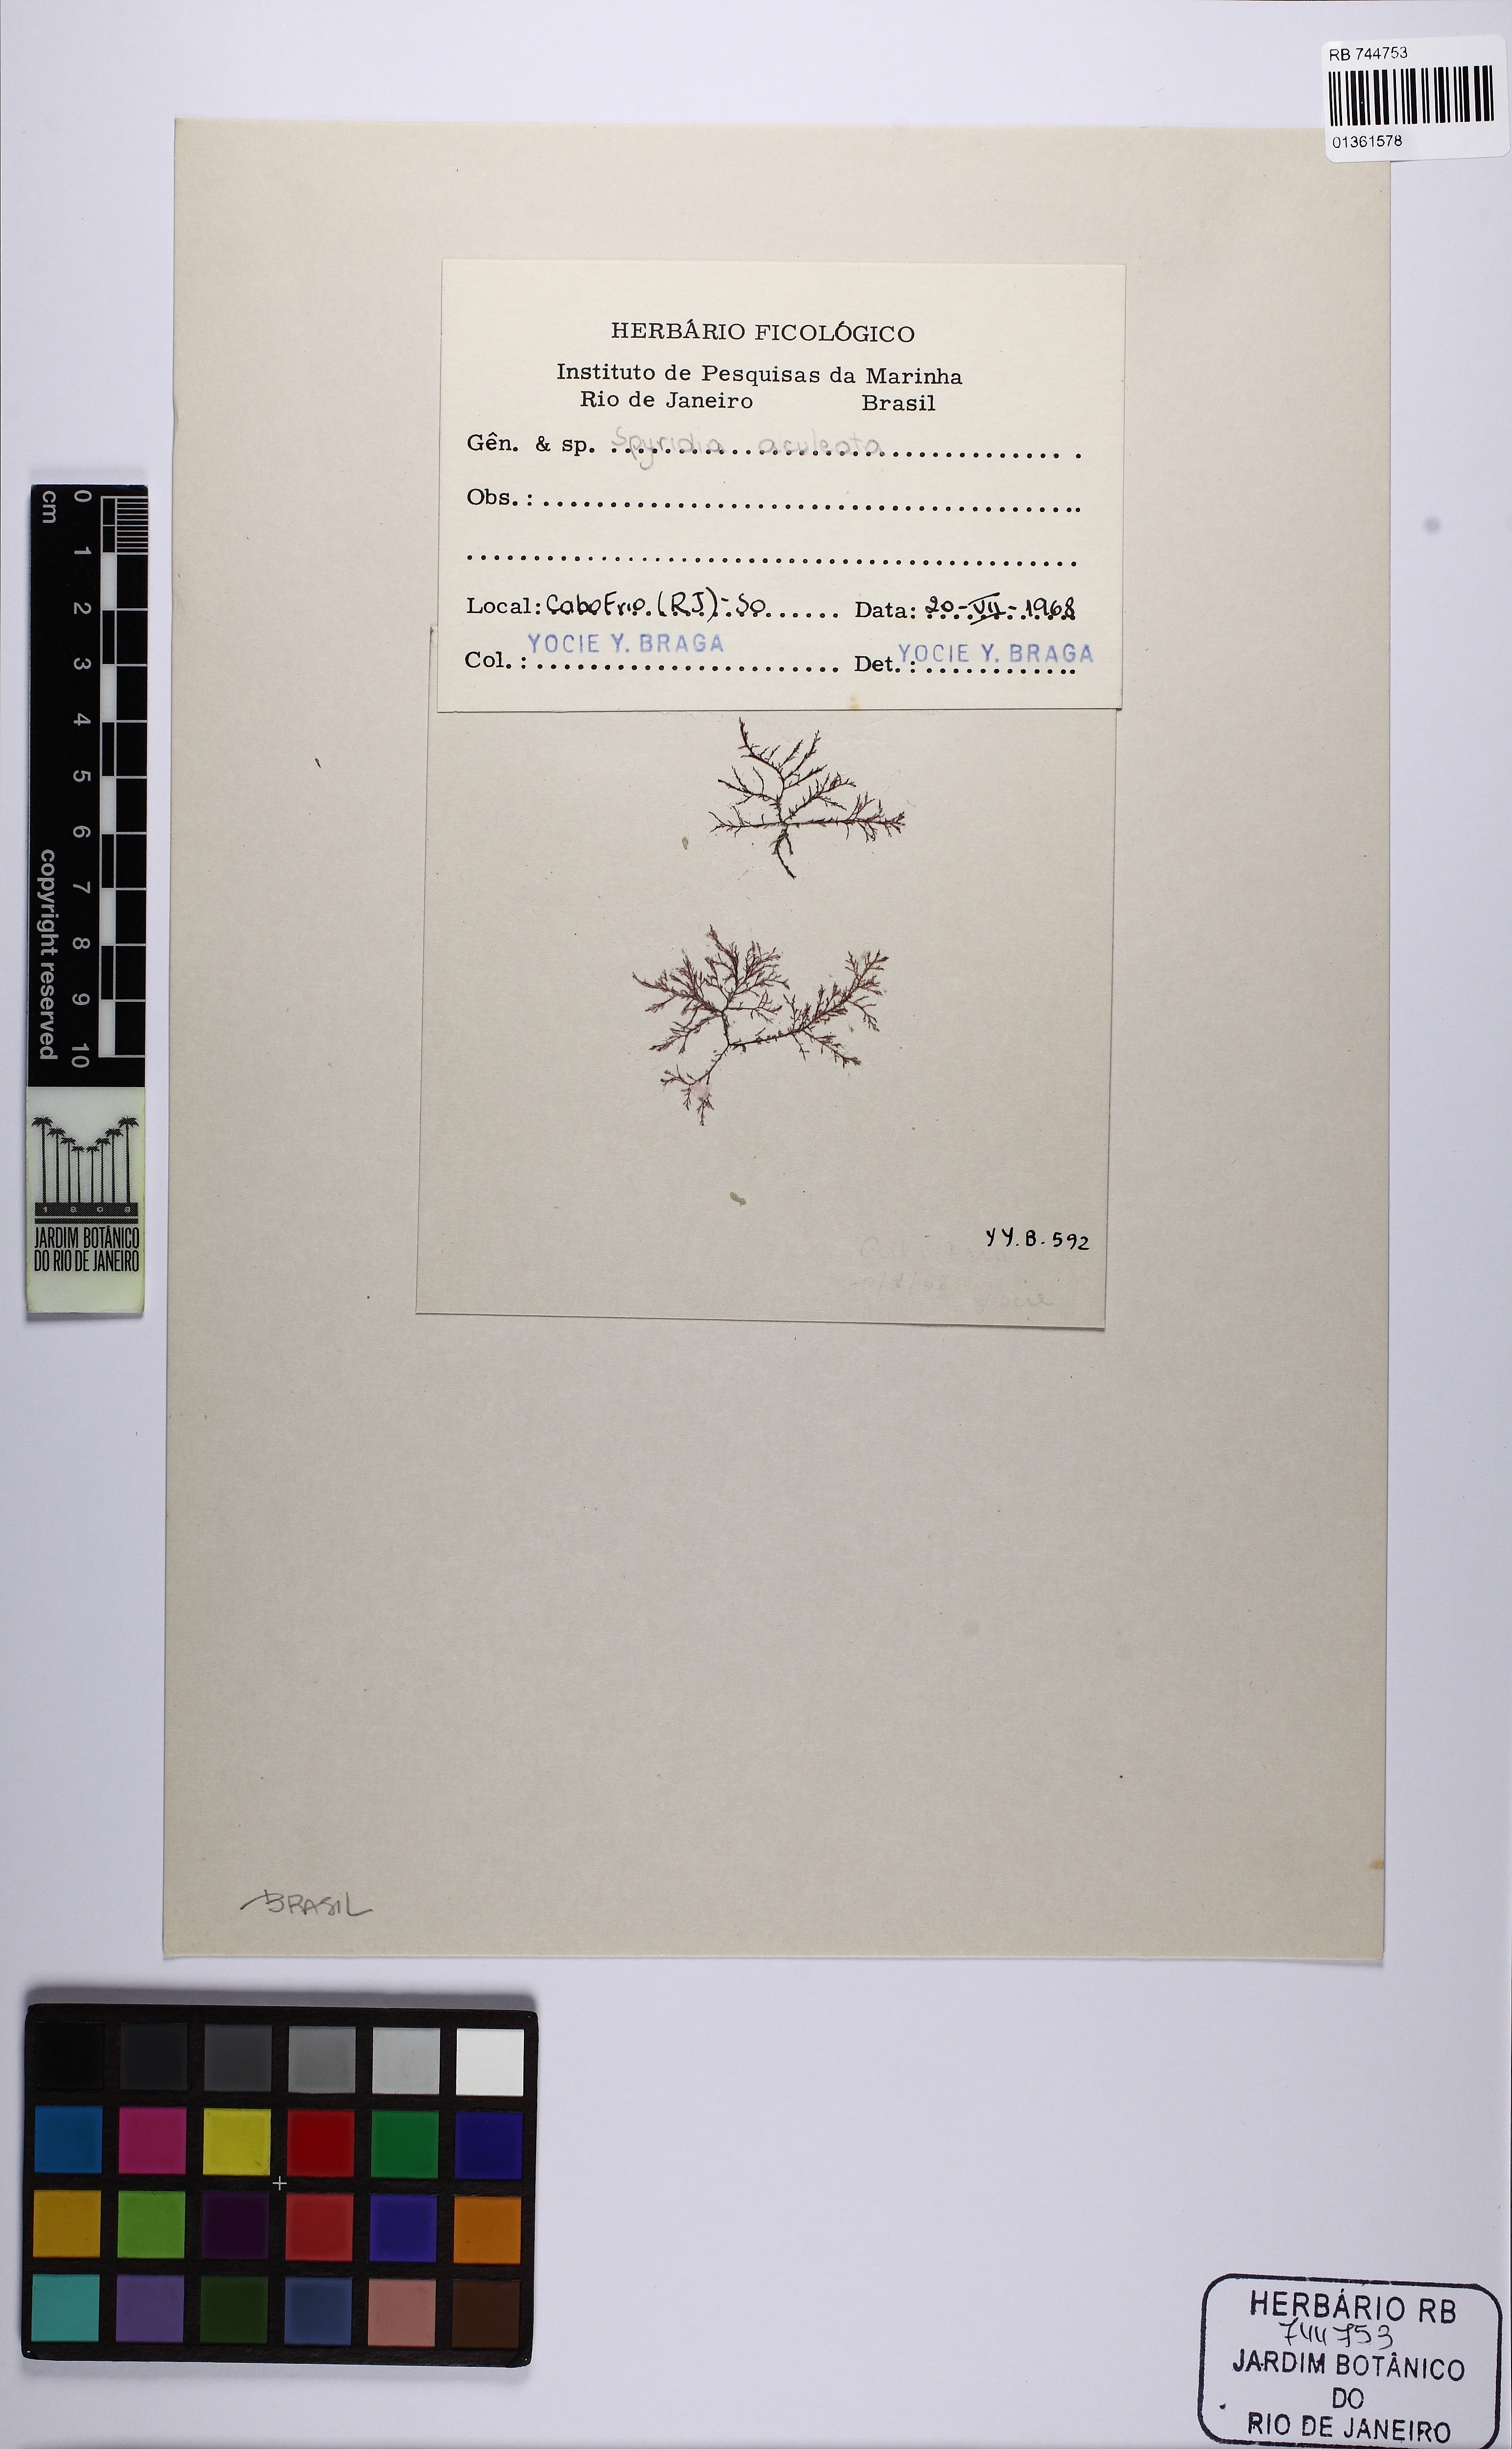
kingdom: Plantae
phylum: Rhodophyta
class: Florideophyceae
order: Ceramiales
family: Spyridiaceae
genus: Spyridia
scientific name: Spyridia hypnoides
